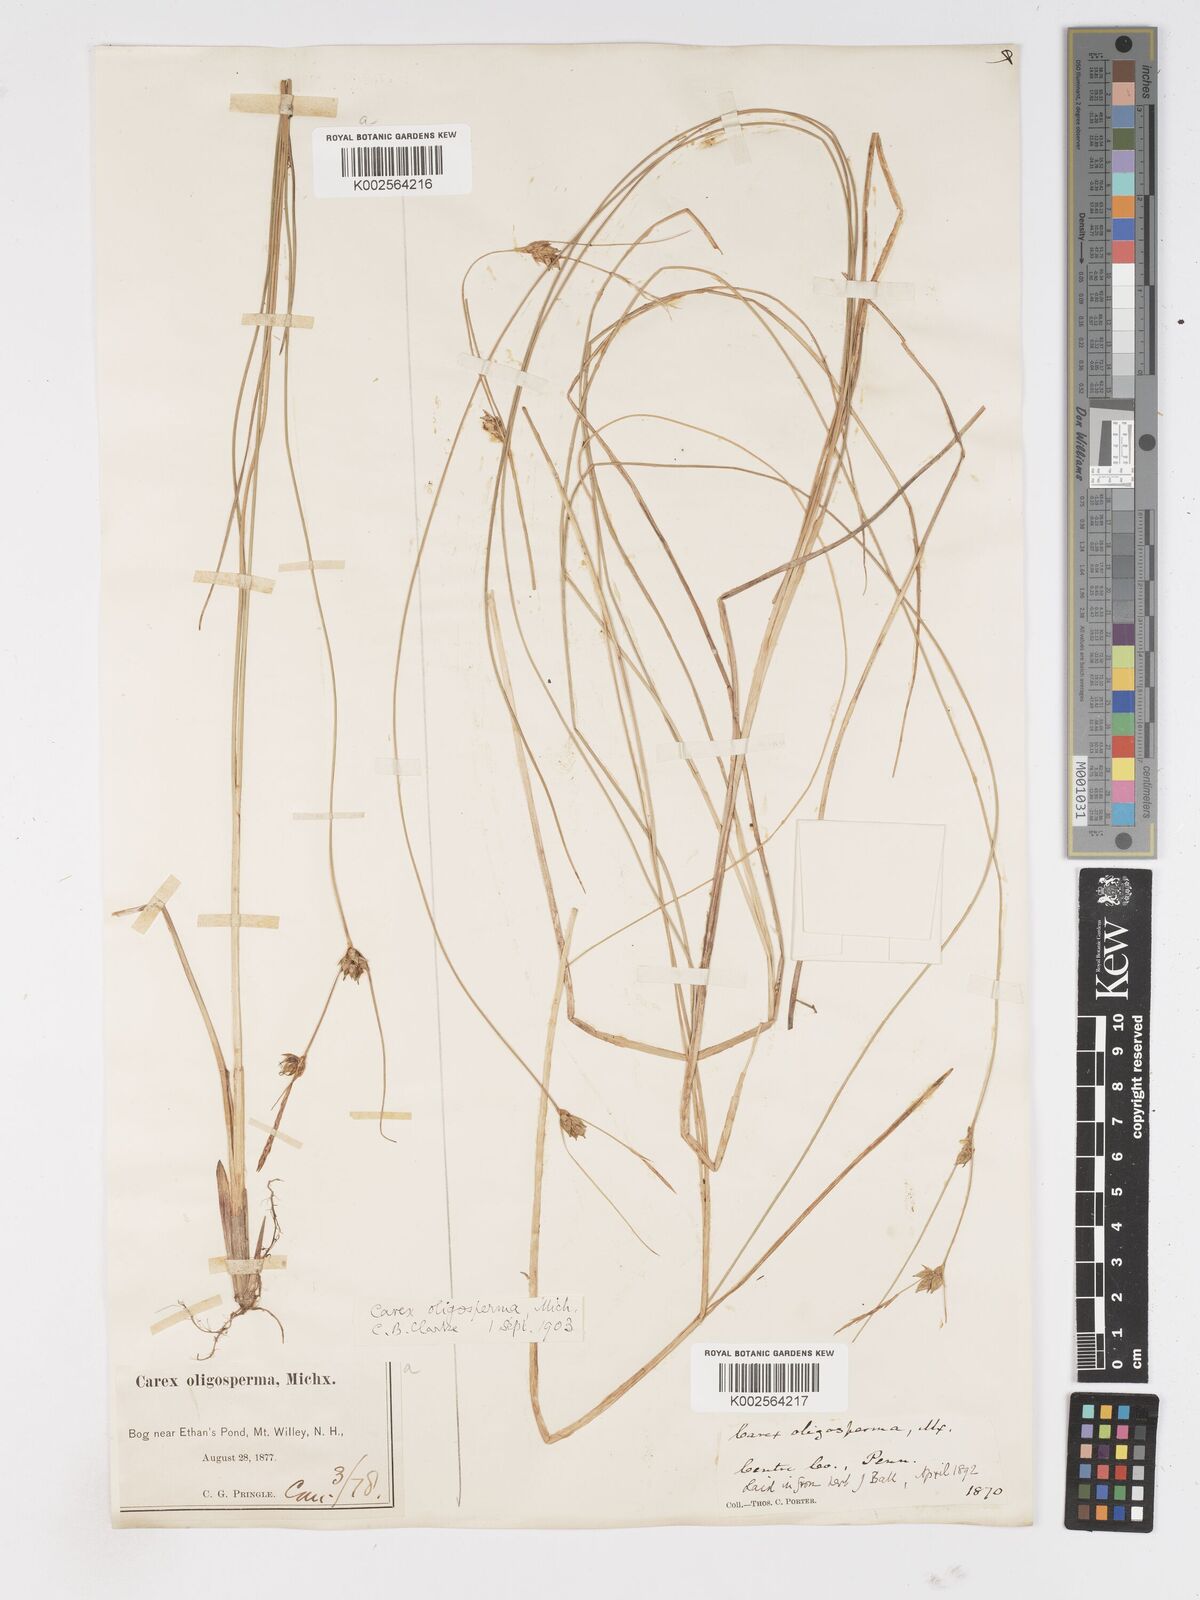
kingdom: Plantae
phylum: Tracheophyta
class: Liliopsida
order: Poales
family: Cyperaceae
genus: Carex
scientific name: Carex oligosperma
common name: Few-seed sedge
